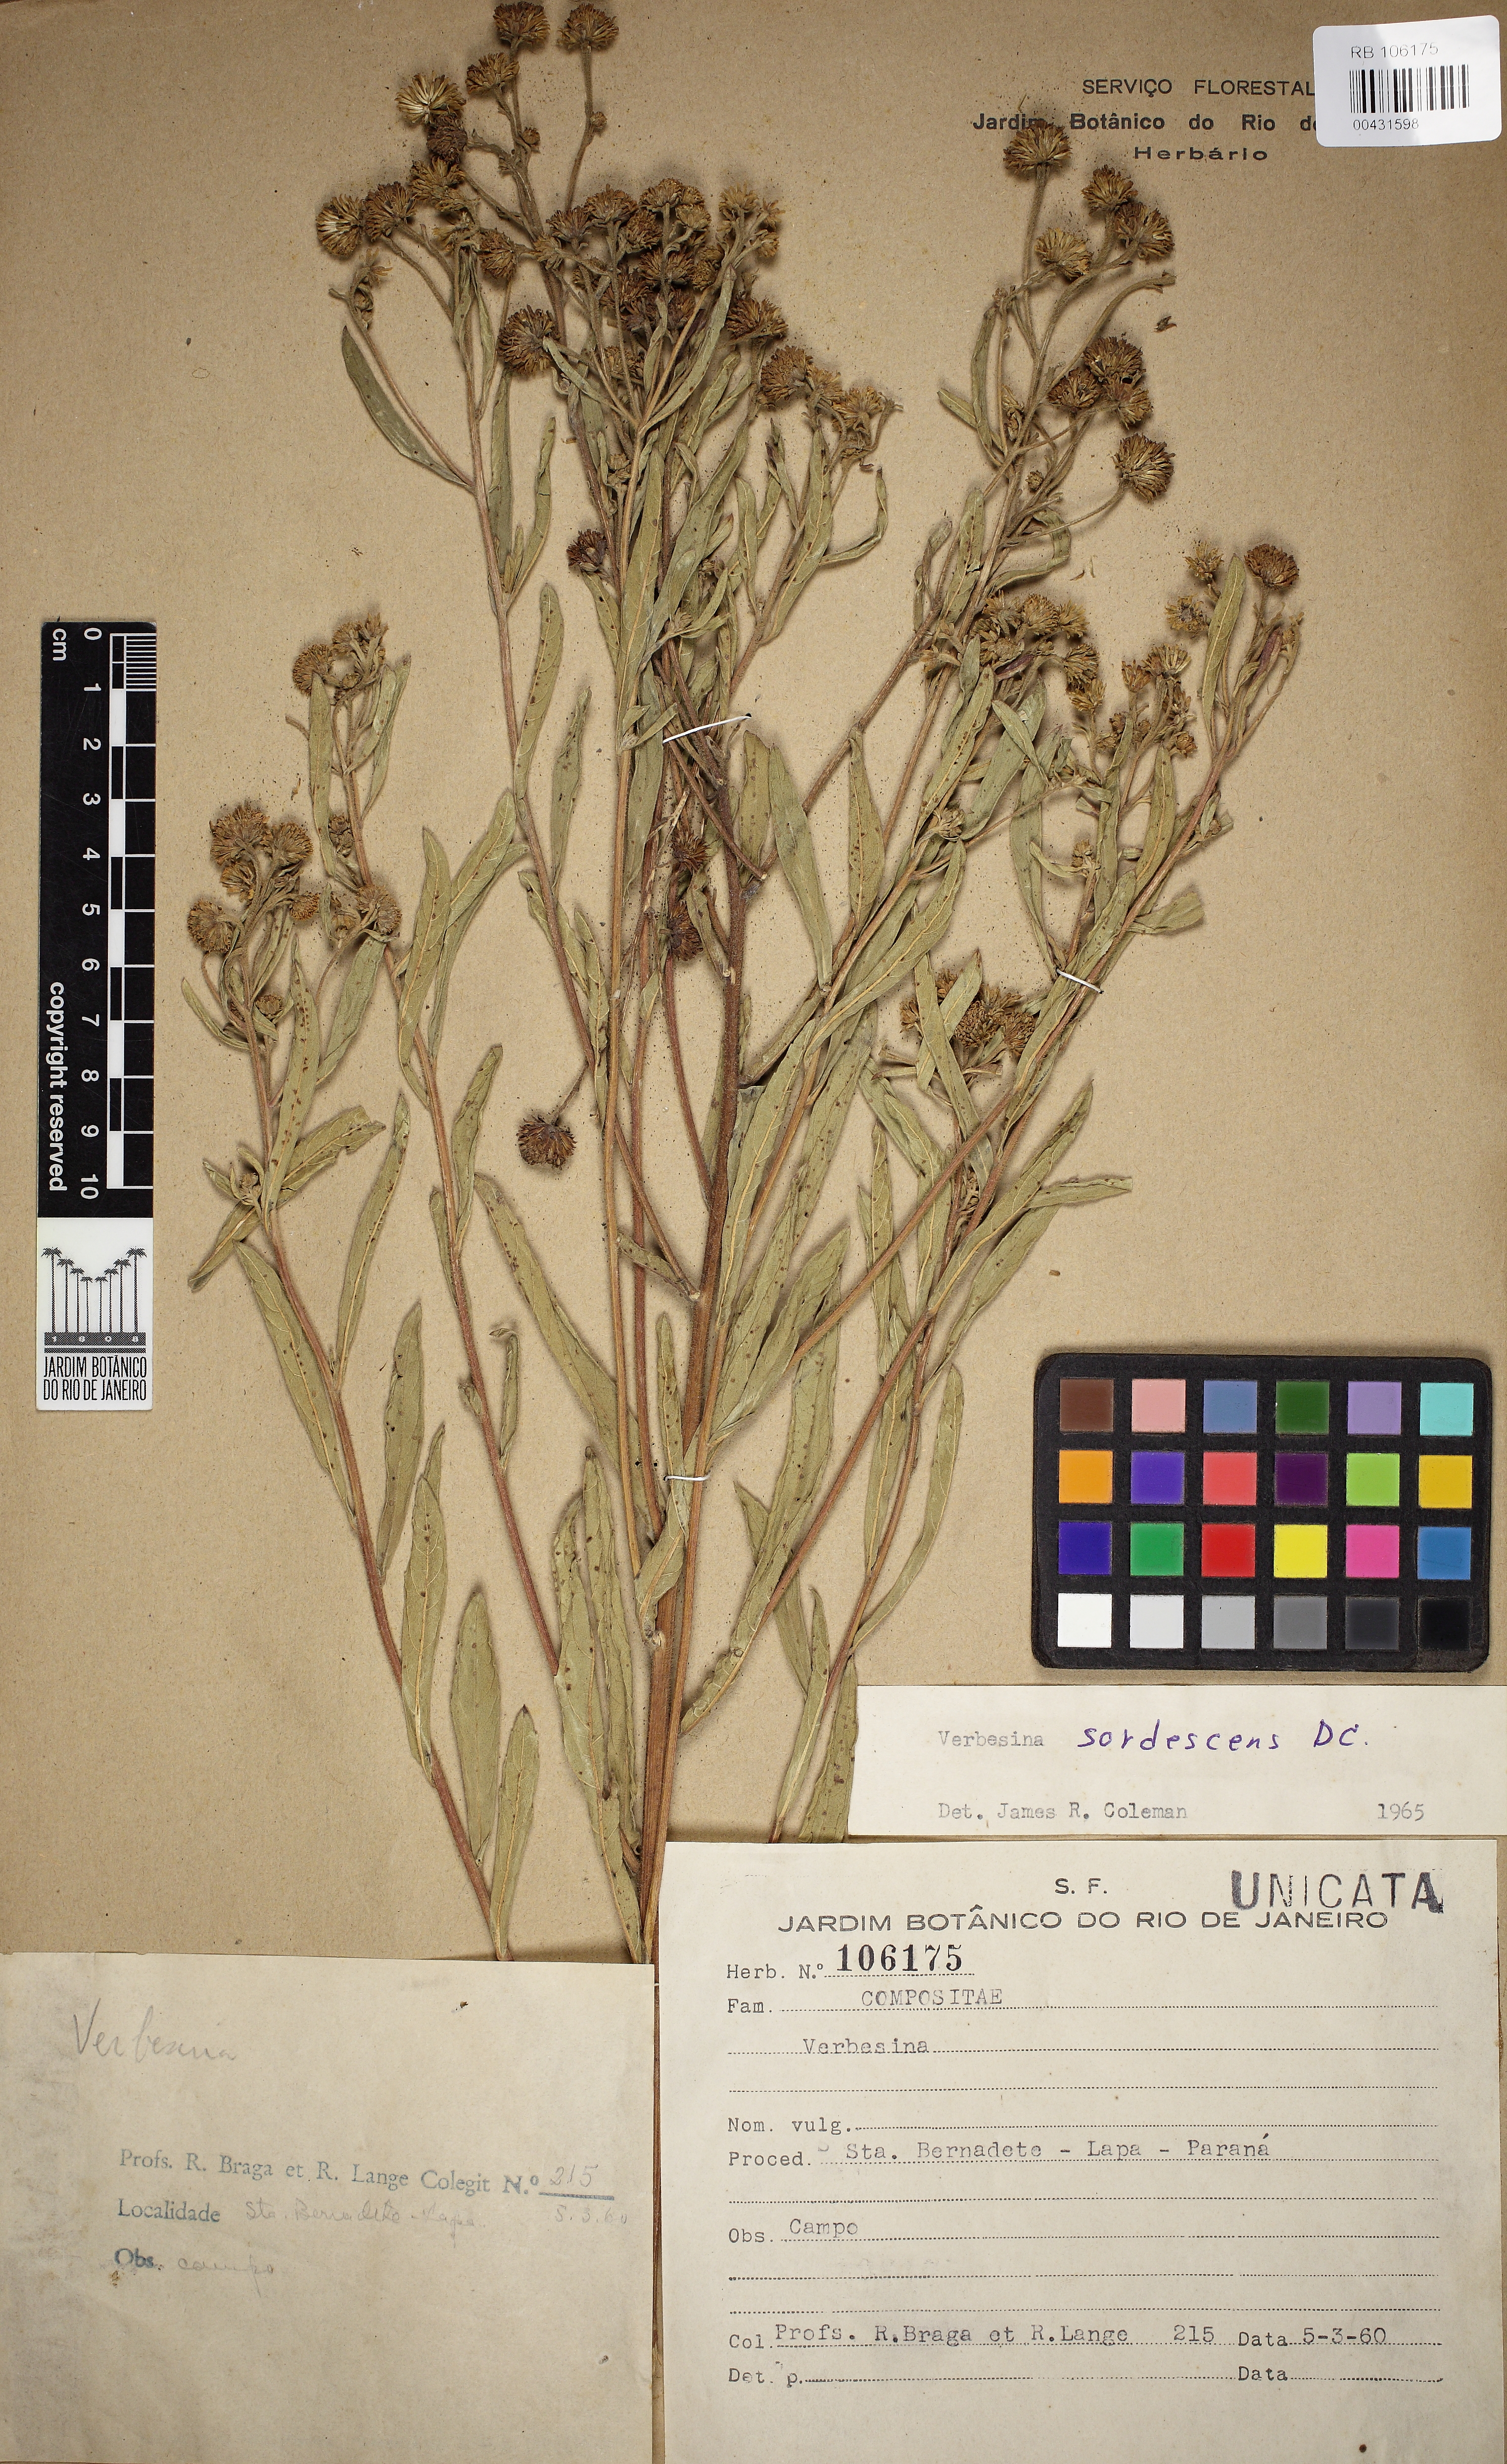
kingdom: Plantae
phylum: Tracheophyta
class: Magnoliopsida
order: Asterales
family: Asteraceae
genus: Verbesina
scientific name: Verbesina sordescens
